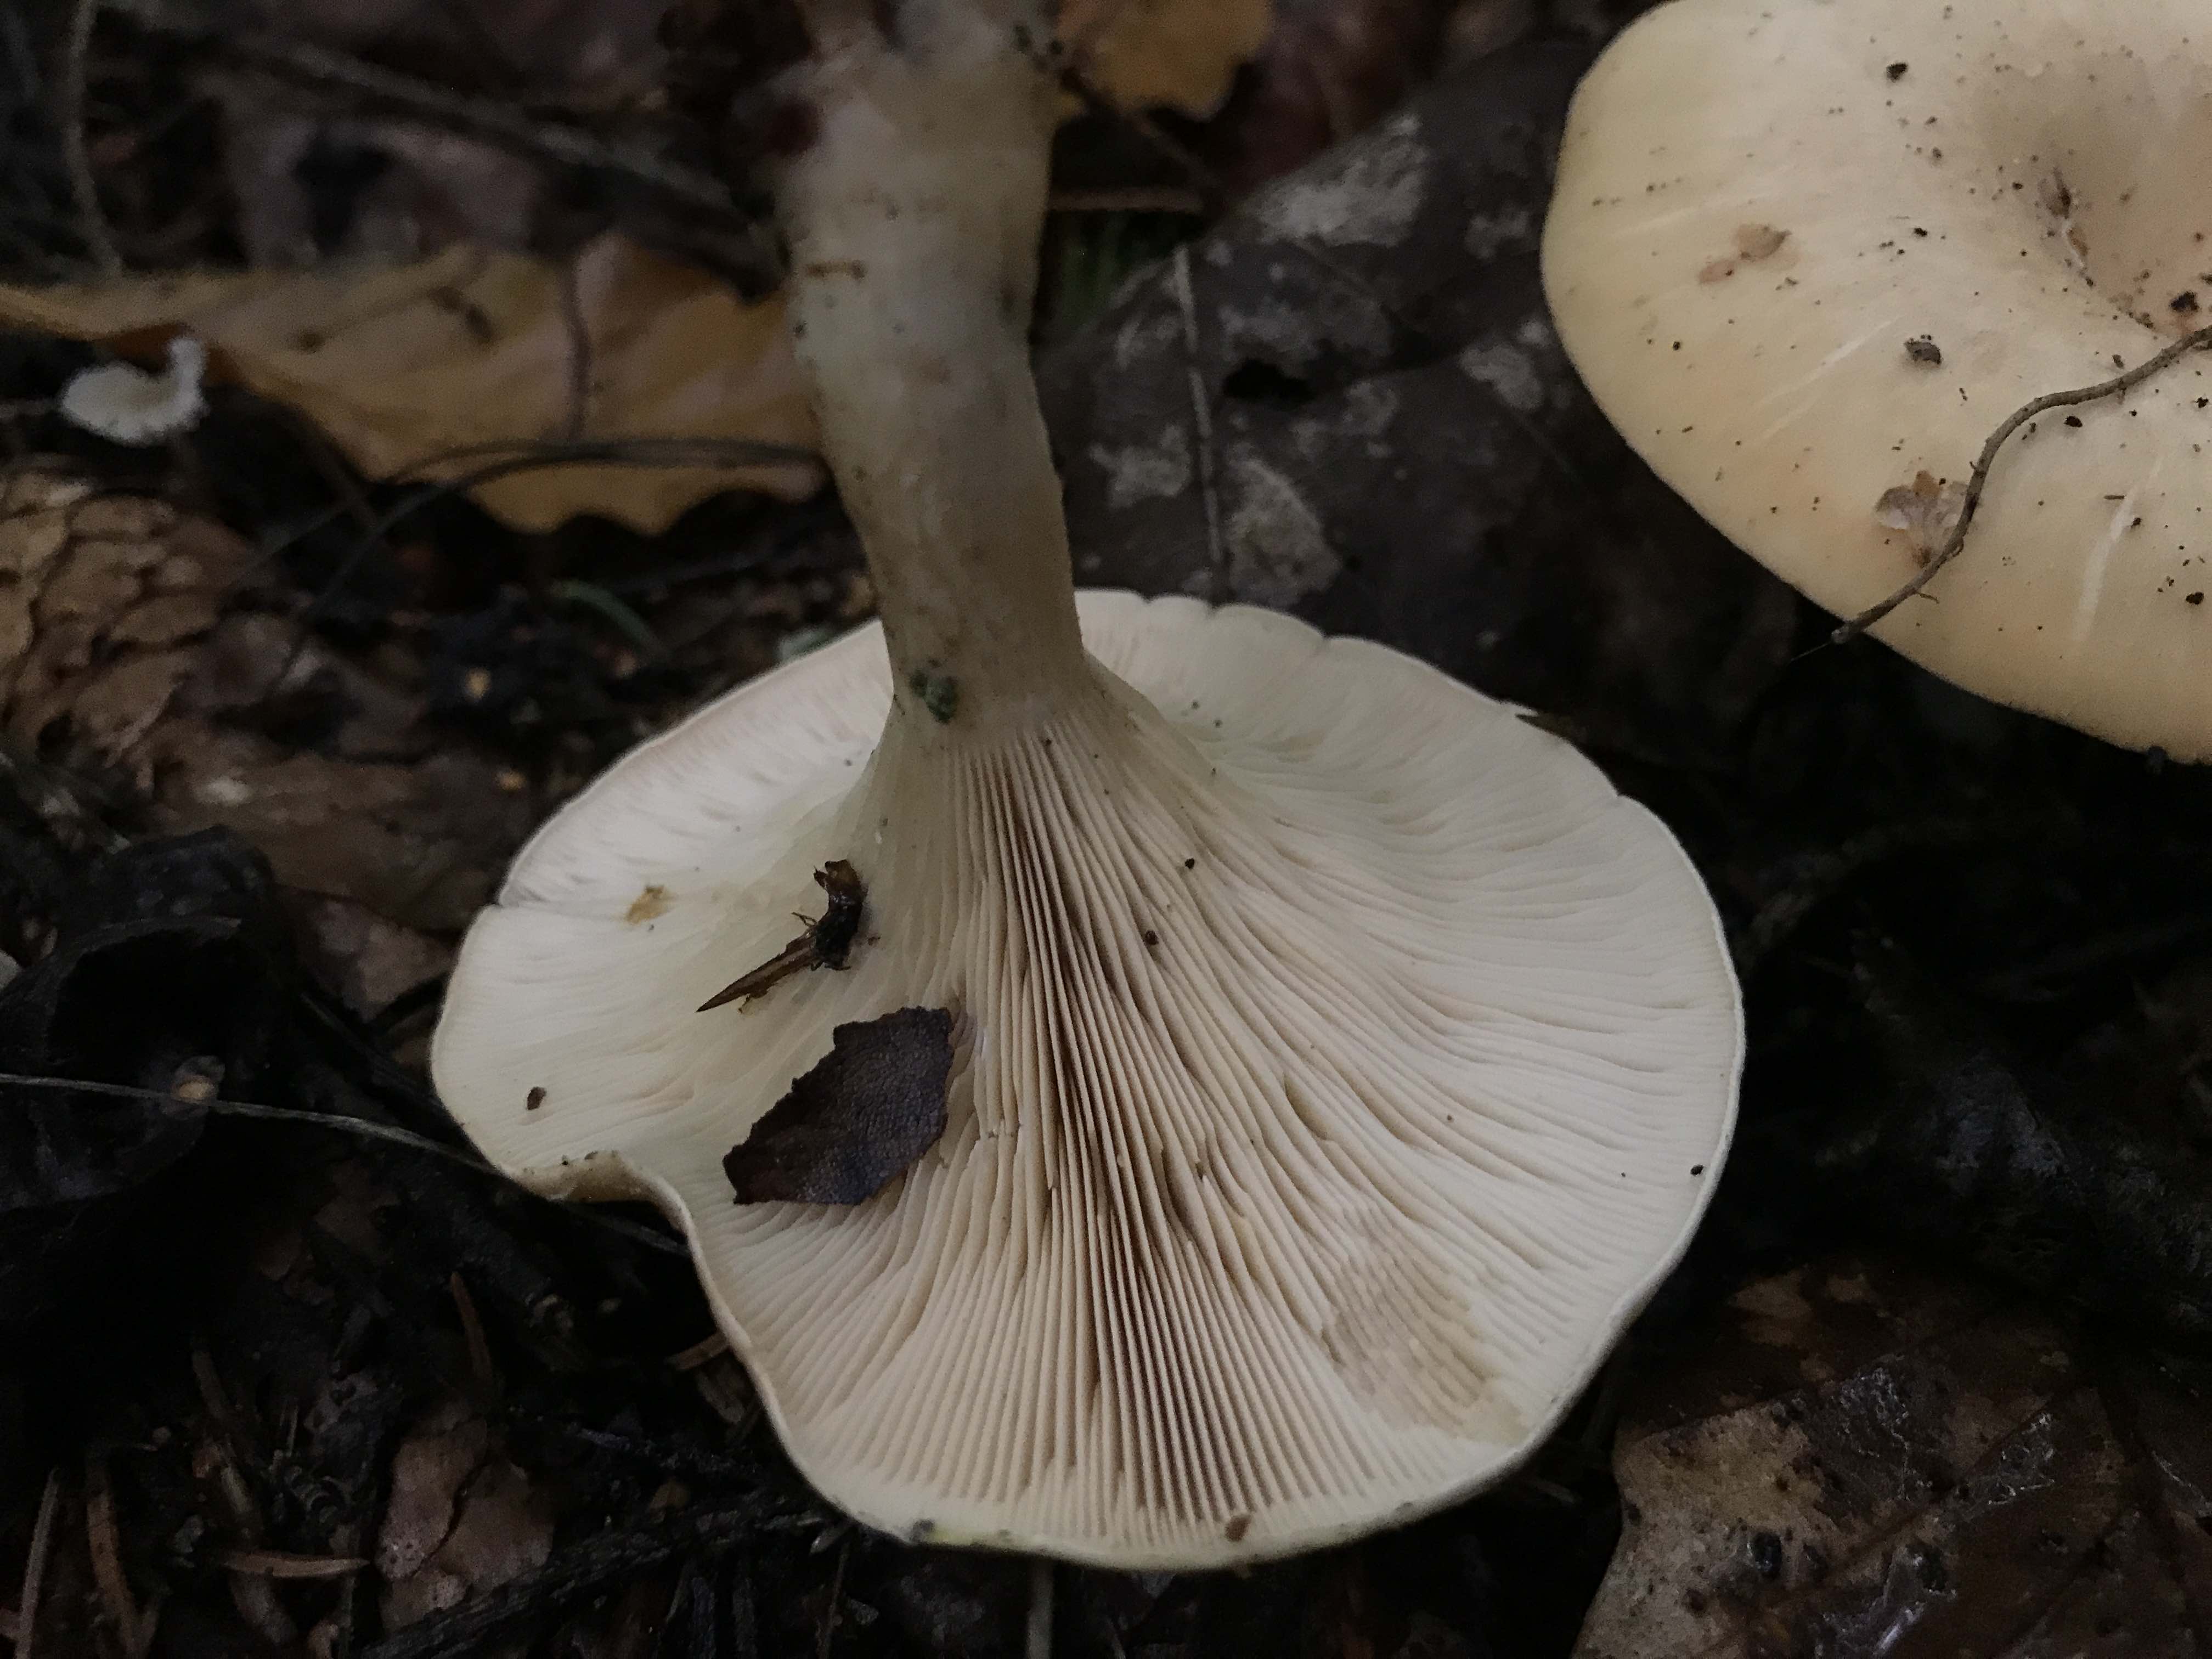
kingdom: Fungi
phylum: Basidiomycota
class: Agaricomycetes
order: Agaricales
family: Tricholomataceae
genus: Paralepista
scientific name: Paralepista
